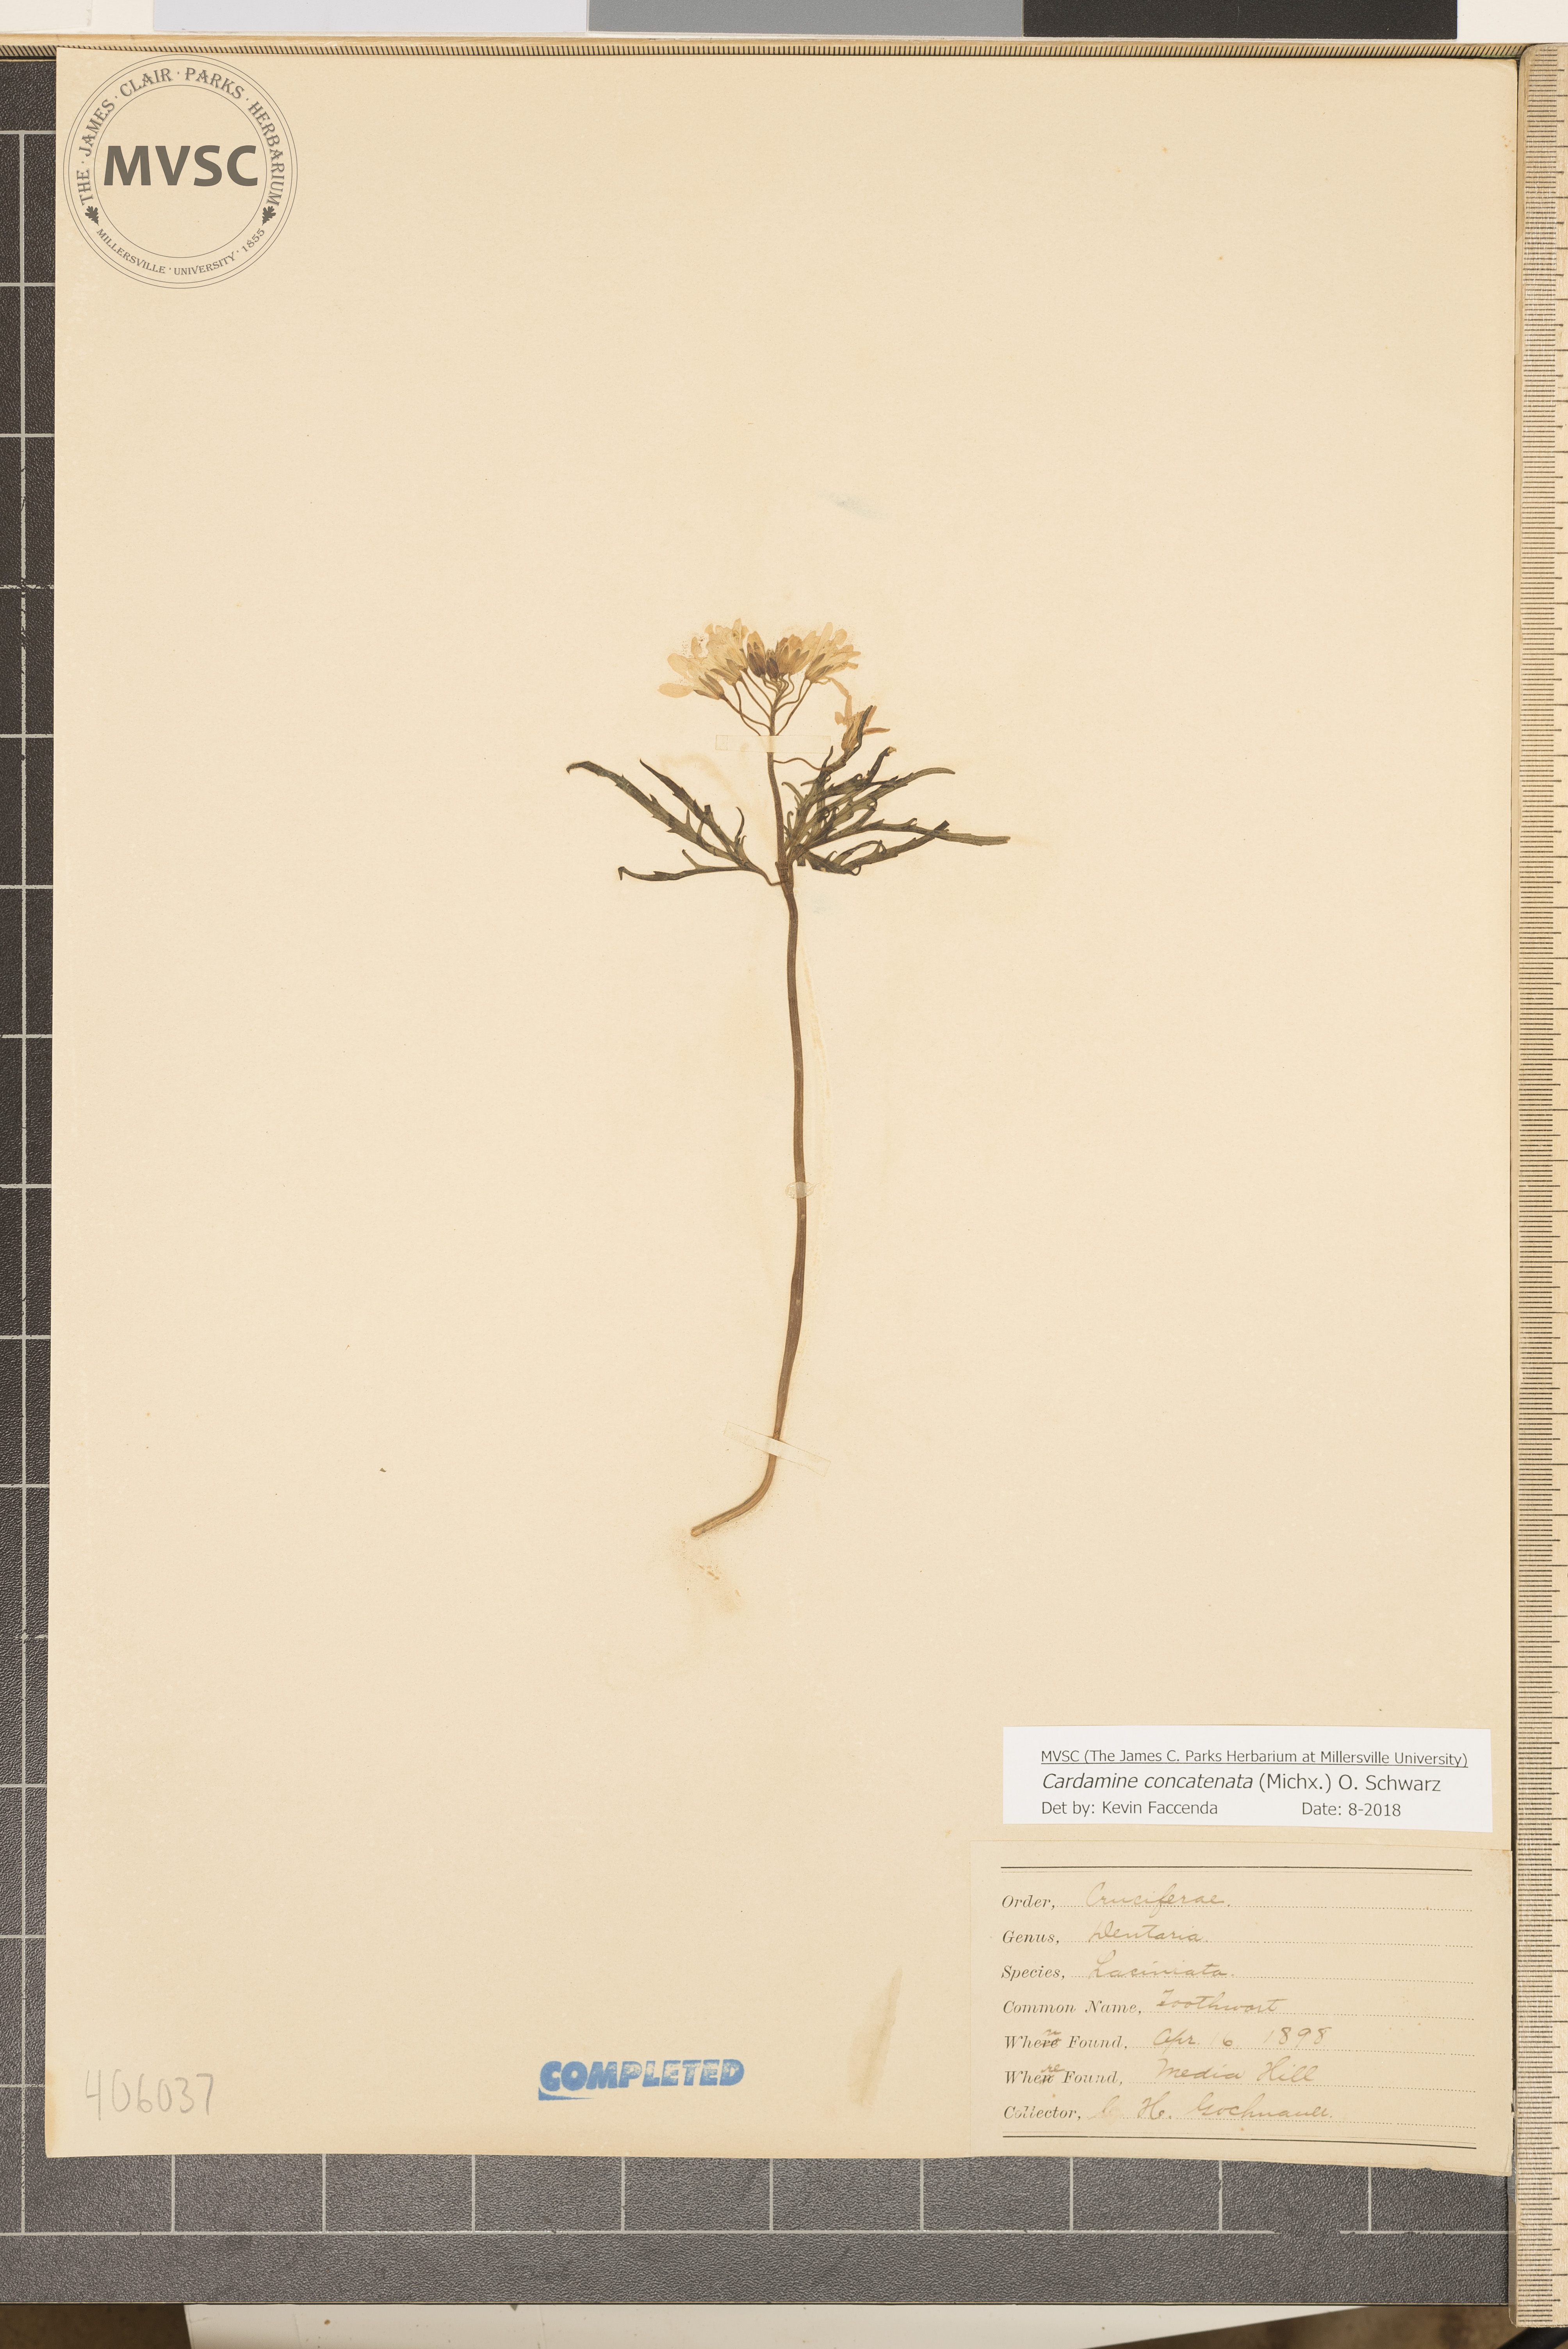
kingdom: Plantae
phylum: Tracheophyta
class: Magnoliopsida
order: Brassicales
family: Brassicaceae
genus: Cardamine
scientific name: Cardamine concatenata
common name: Toothwort
